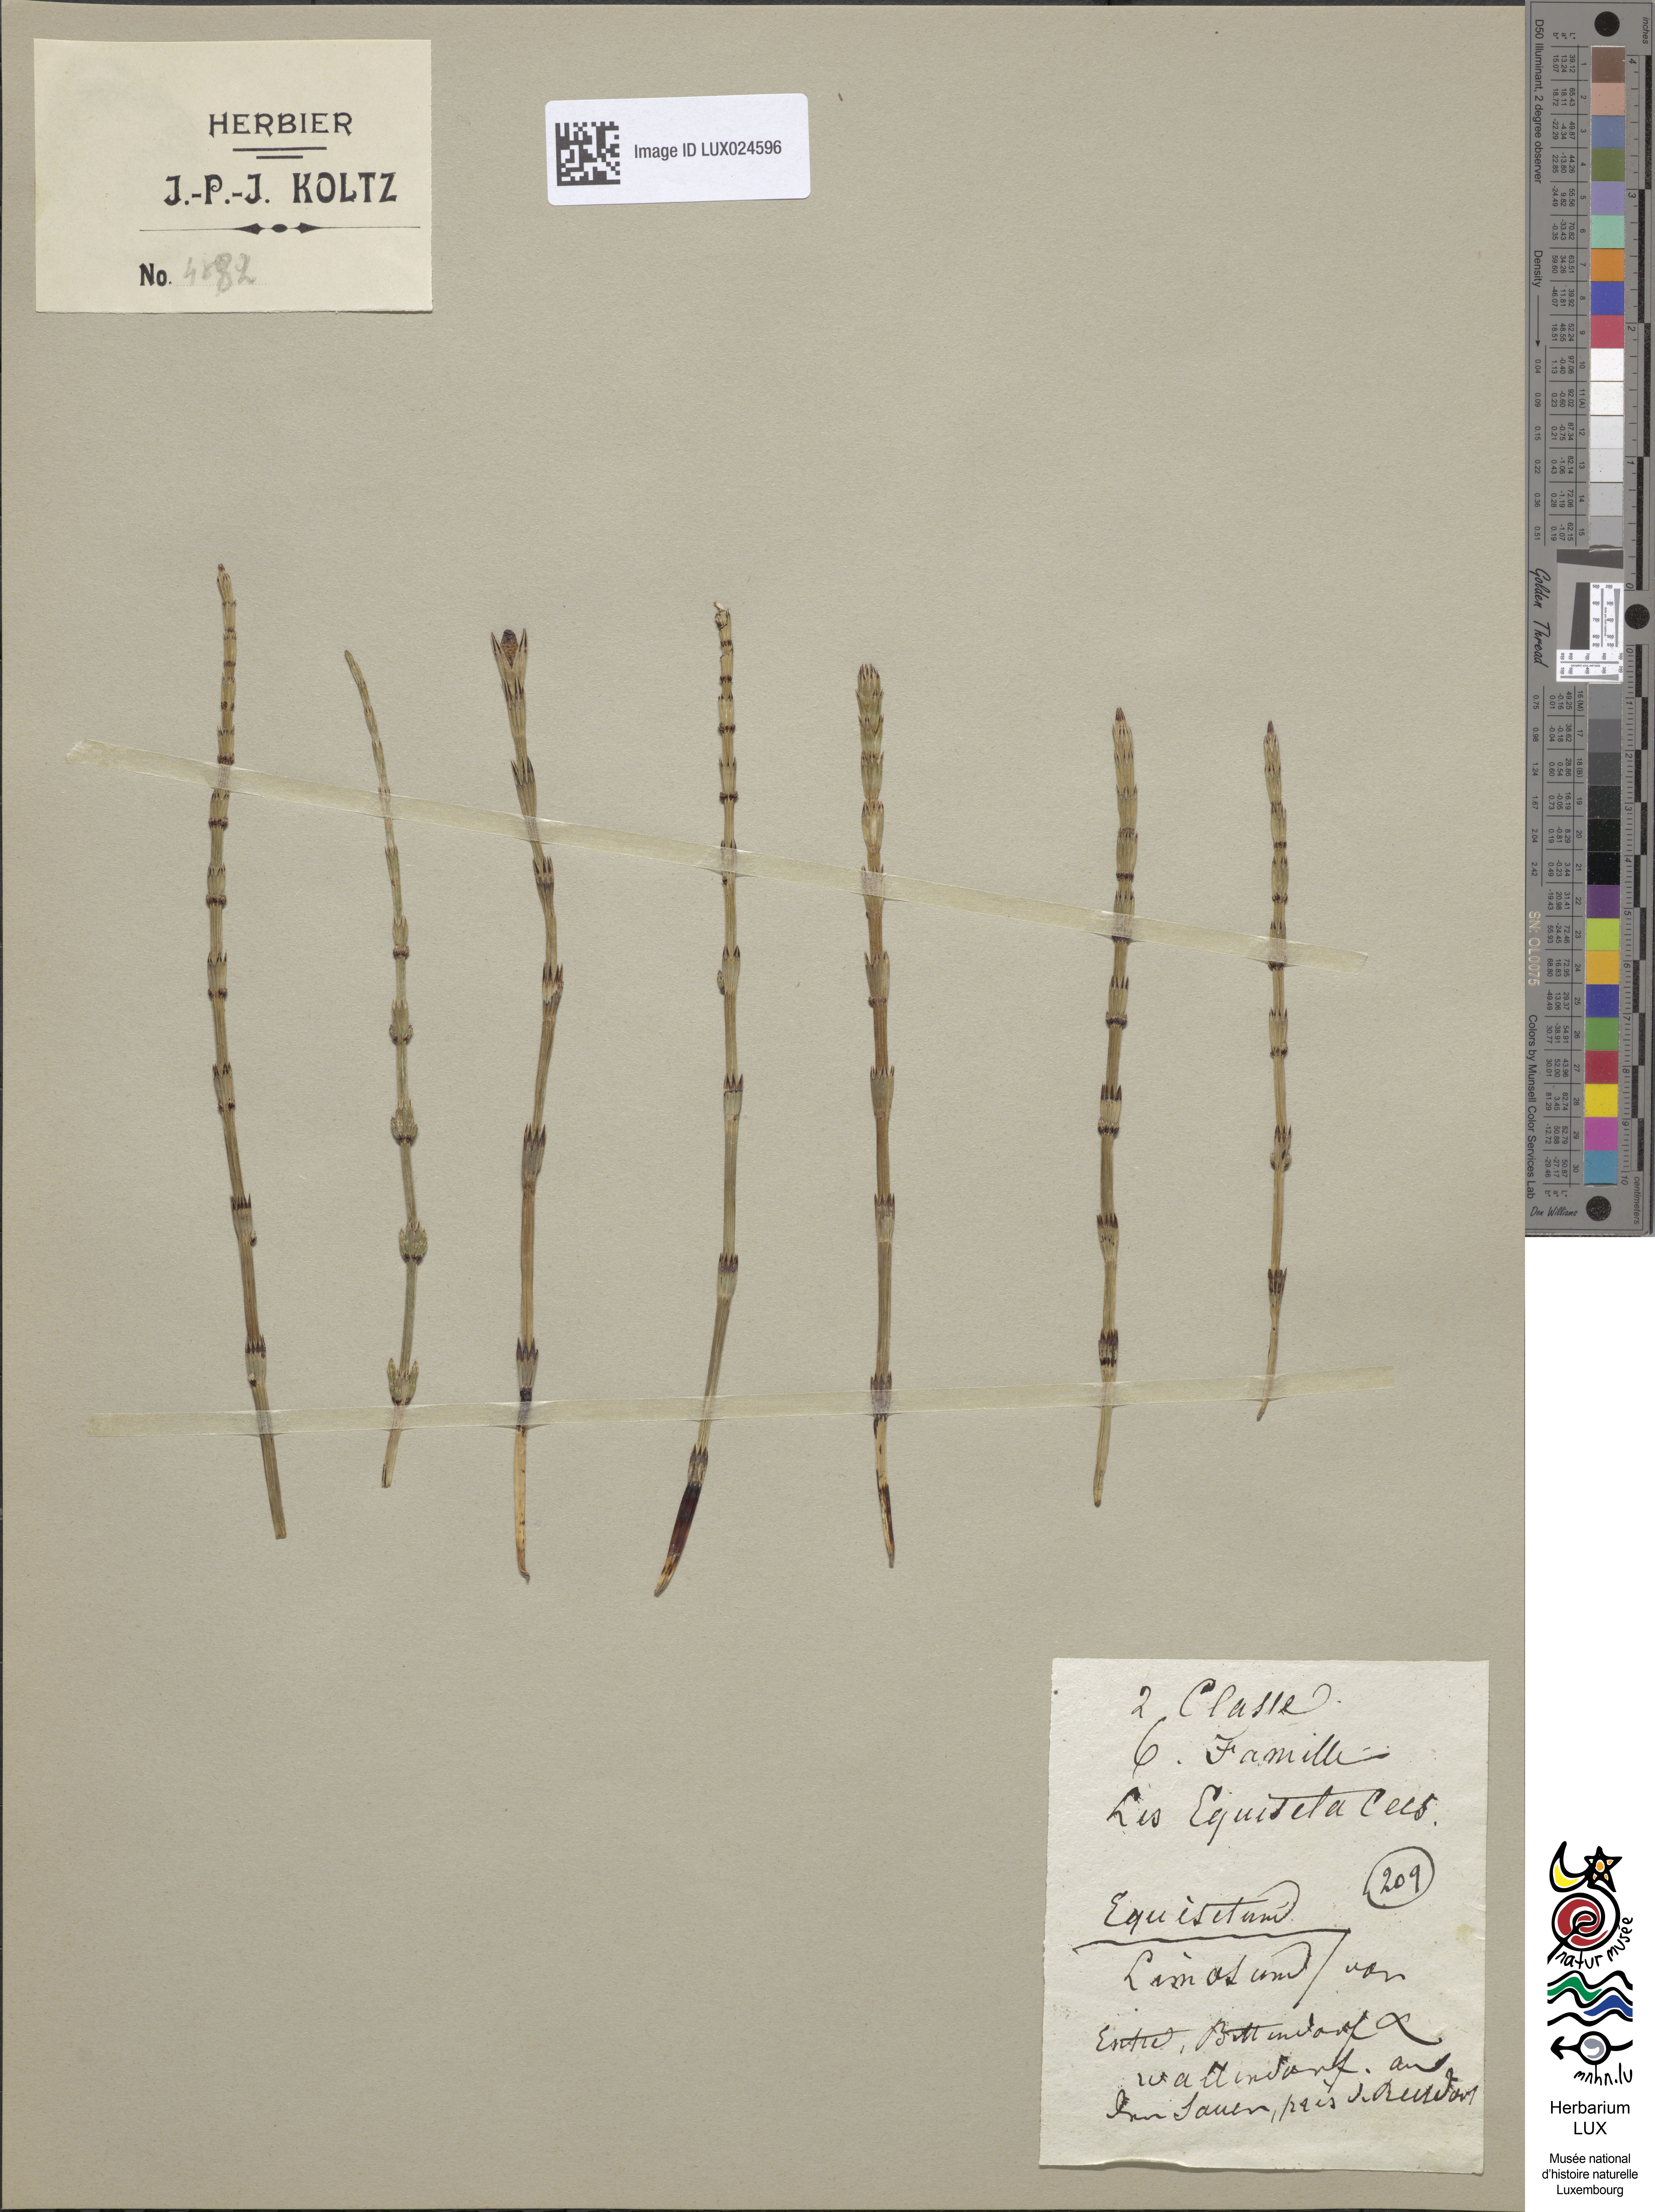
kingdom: Plantae
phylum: Tracheophyta
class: Polypodiopsida
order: Equisetales
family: Equisetaceae
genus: Equisetum
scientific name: Equisetum fluviatile
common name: Water horsetail
